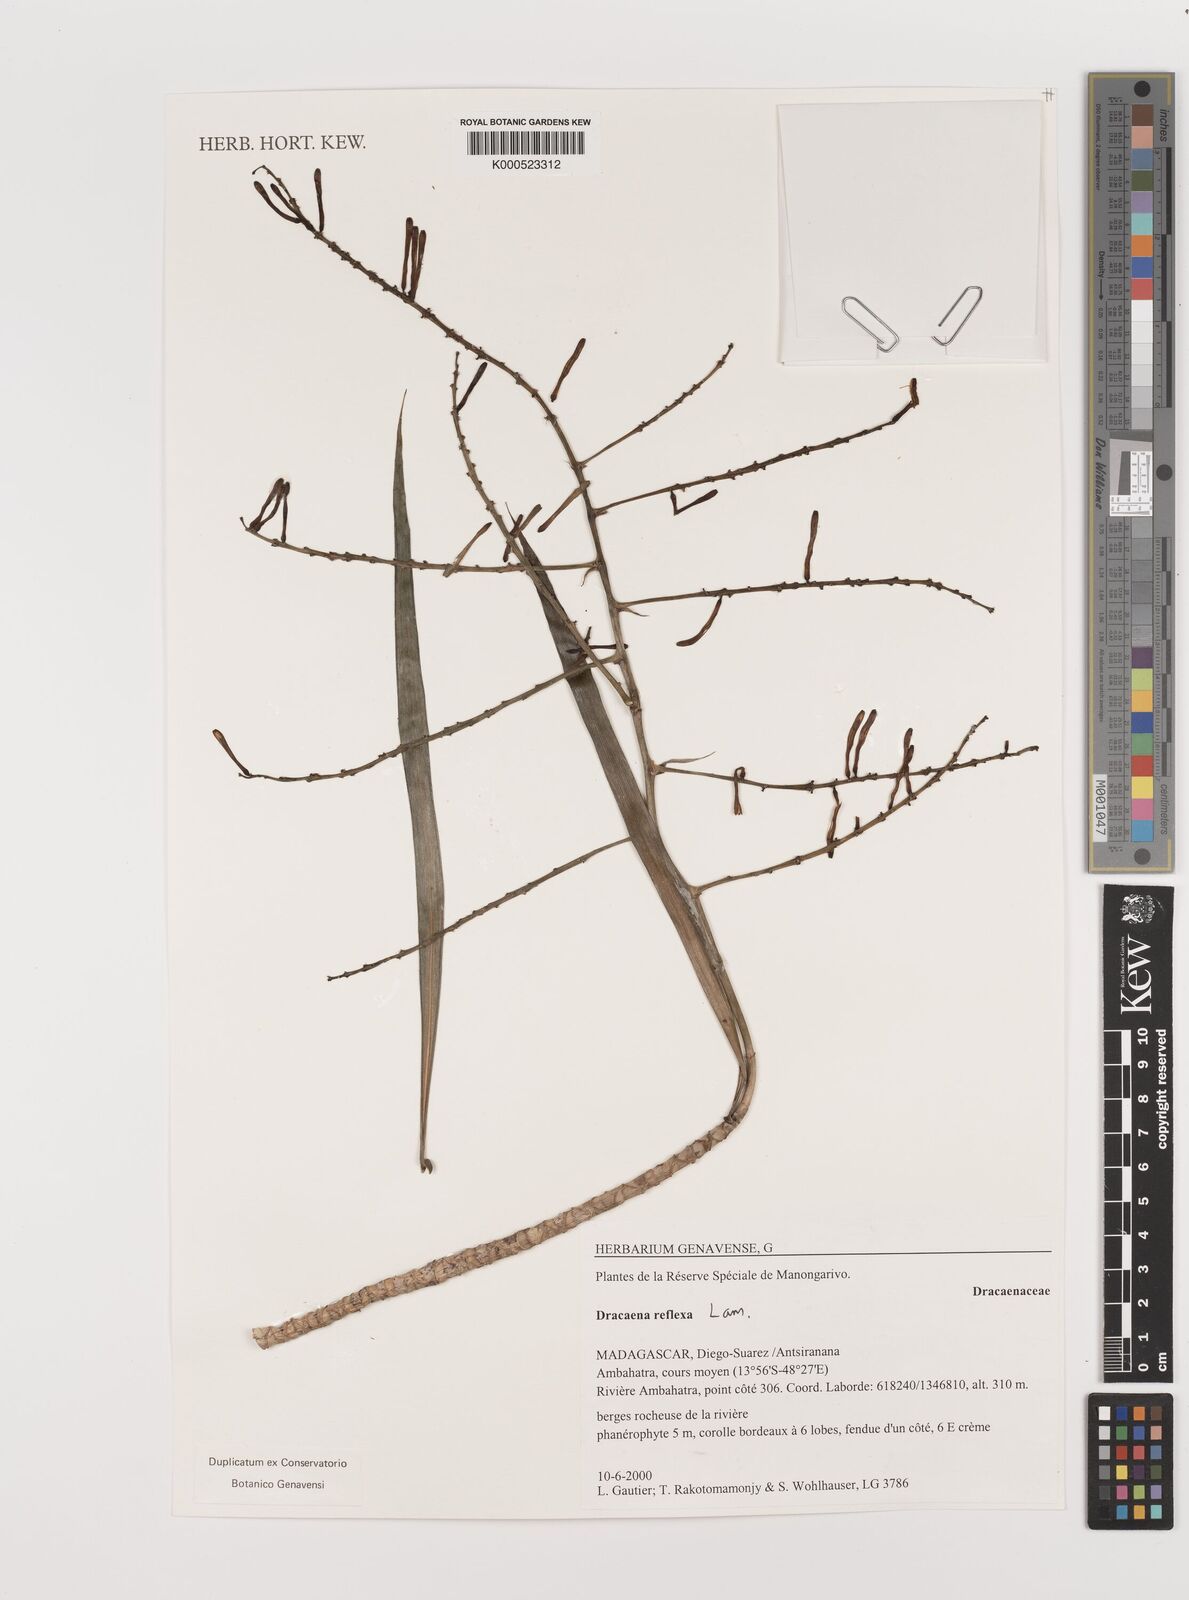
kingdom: Plantae
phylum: Tracheophyta
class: Liliopsida
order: Asparagales
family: Asparagaceae
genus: Dracaena
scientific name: Dracaena reflexa
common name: Song-of-india
